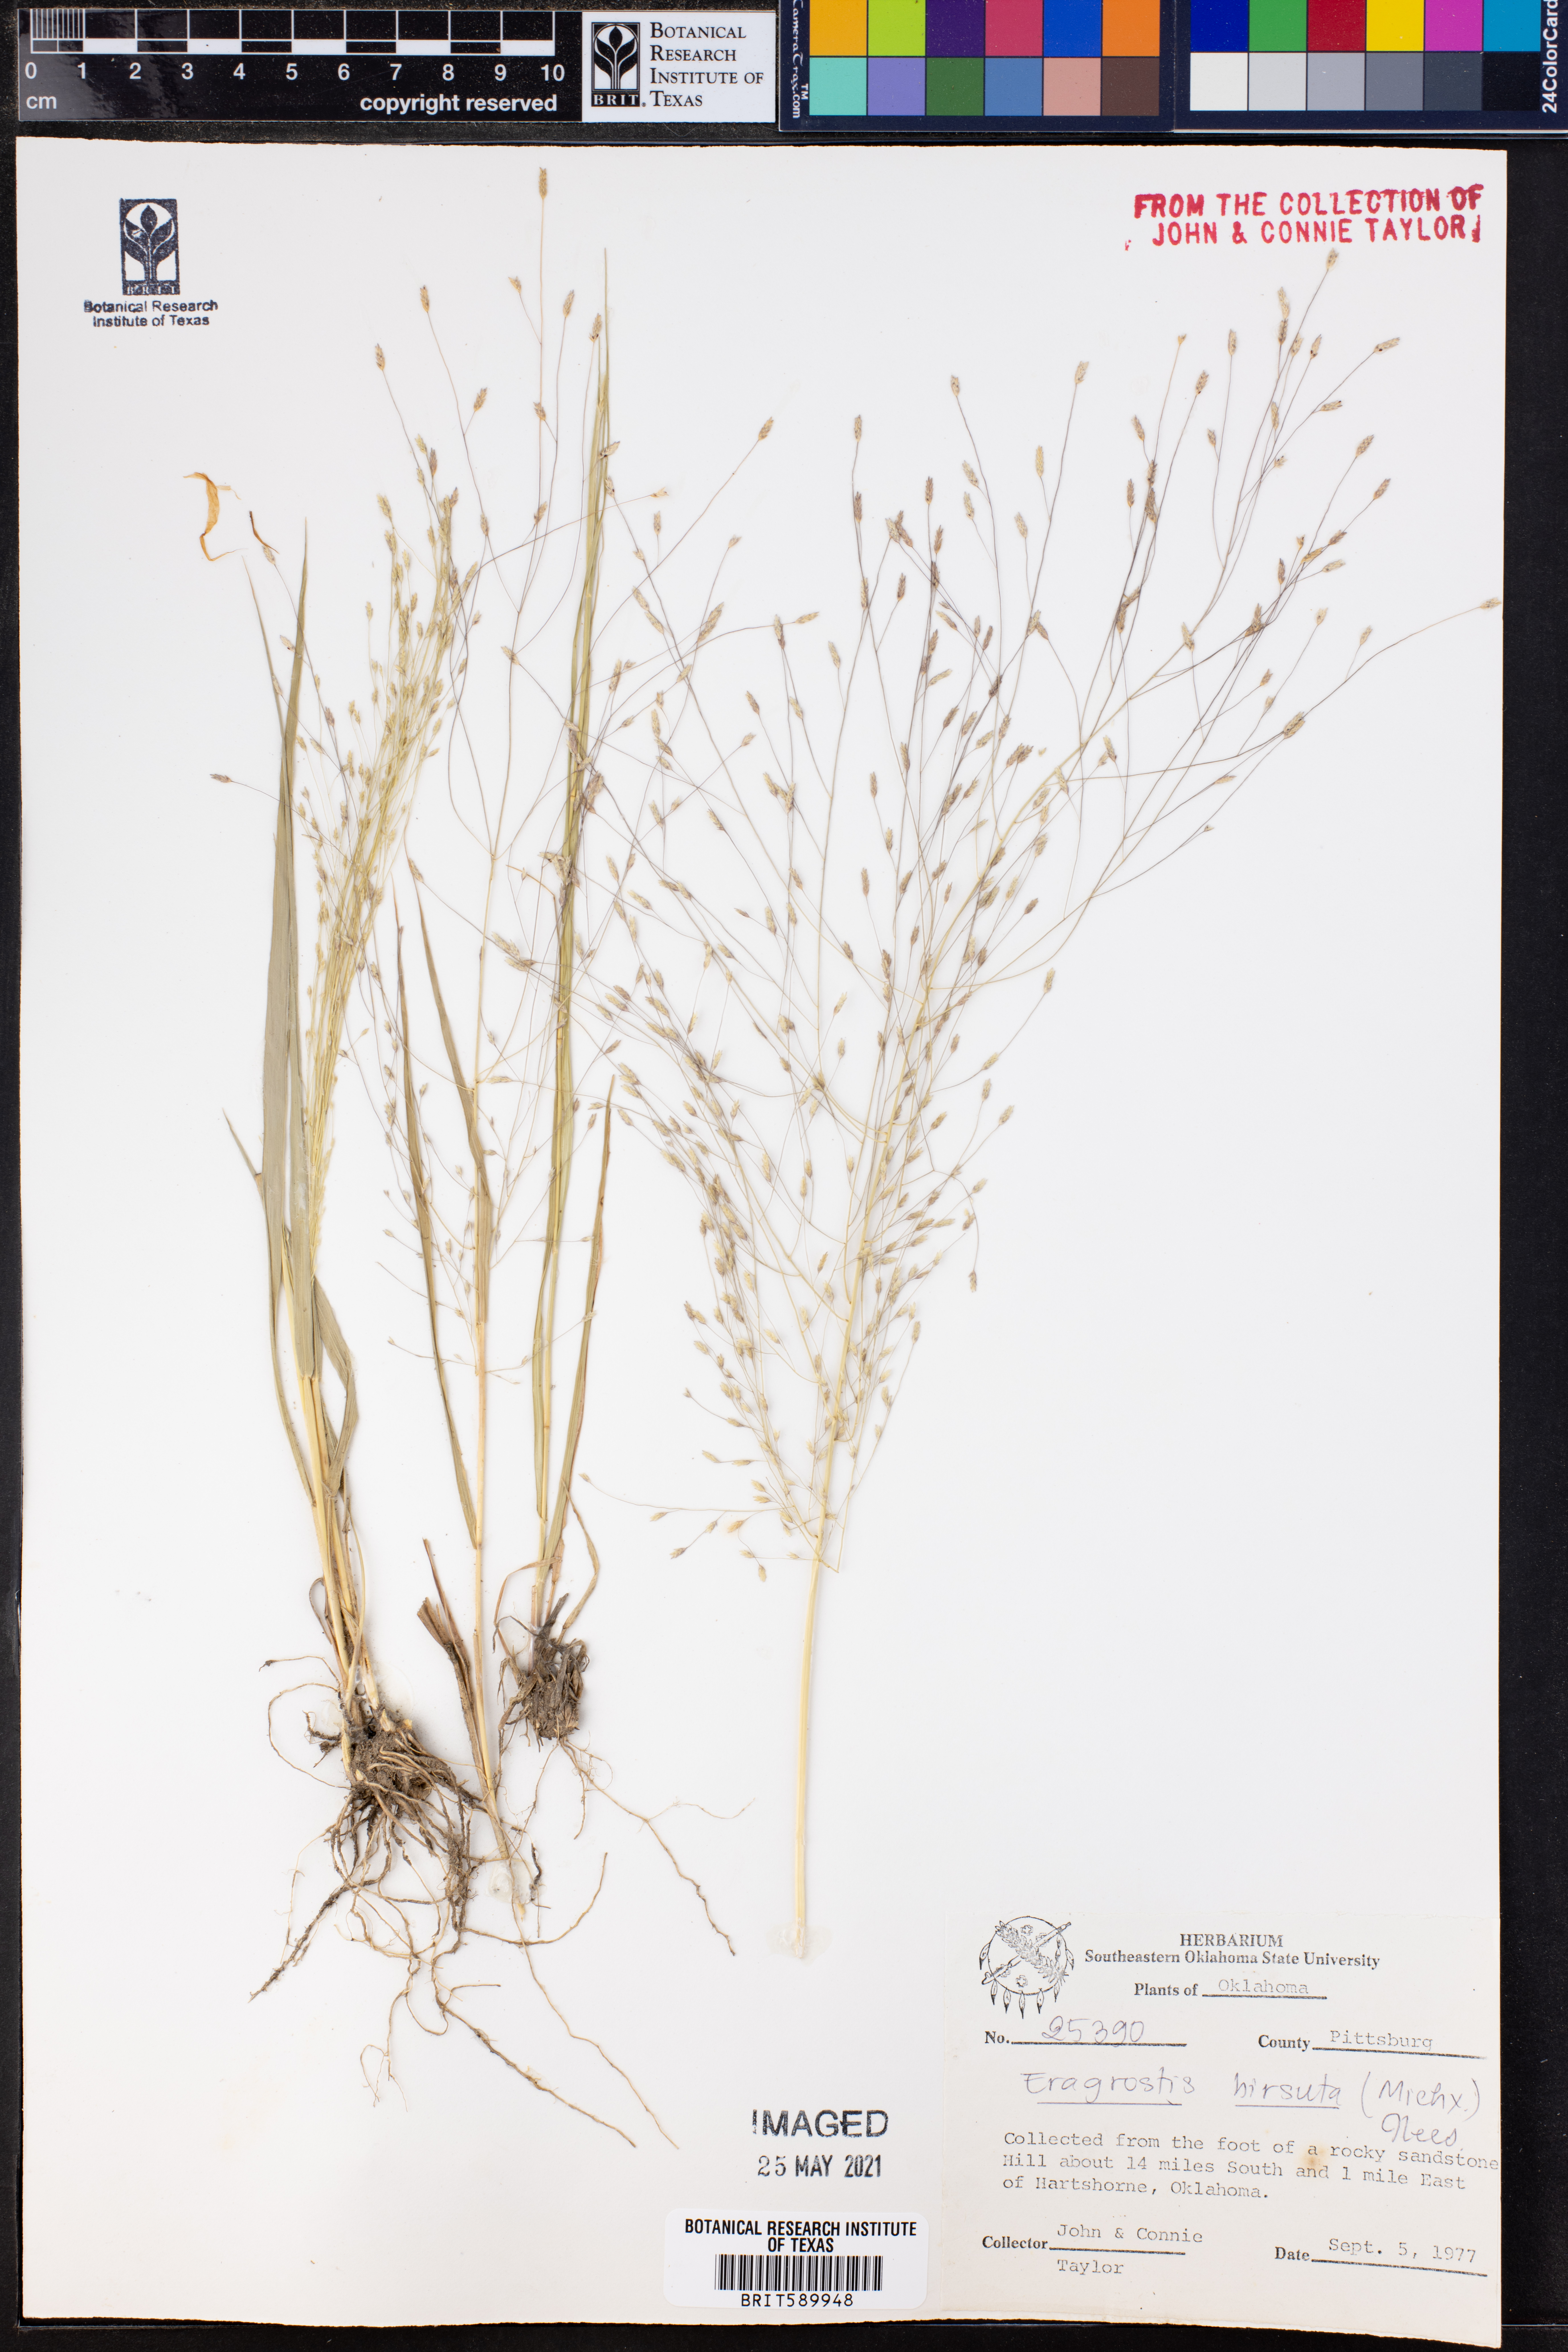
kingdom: Plantae
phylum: Tracheophyta
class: Liliopsida
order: Poales
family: Poaceae
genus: Eragrostis
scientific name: Eragrostis hirsuta
